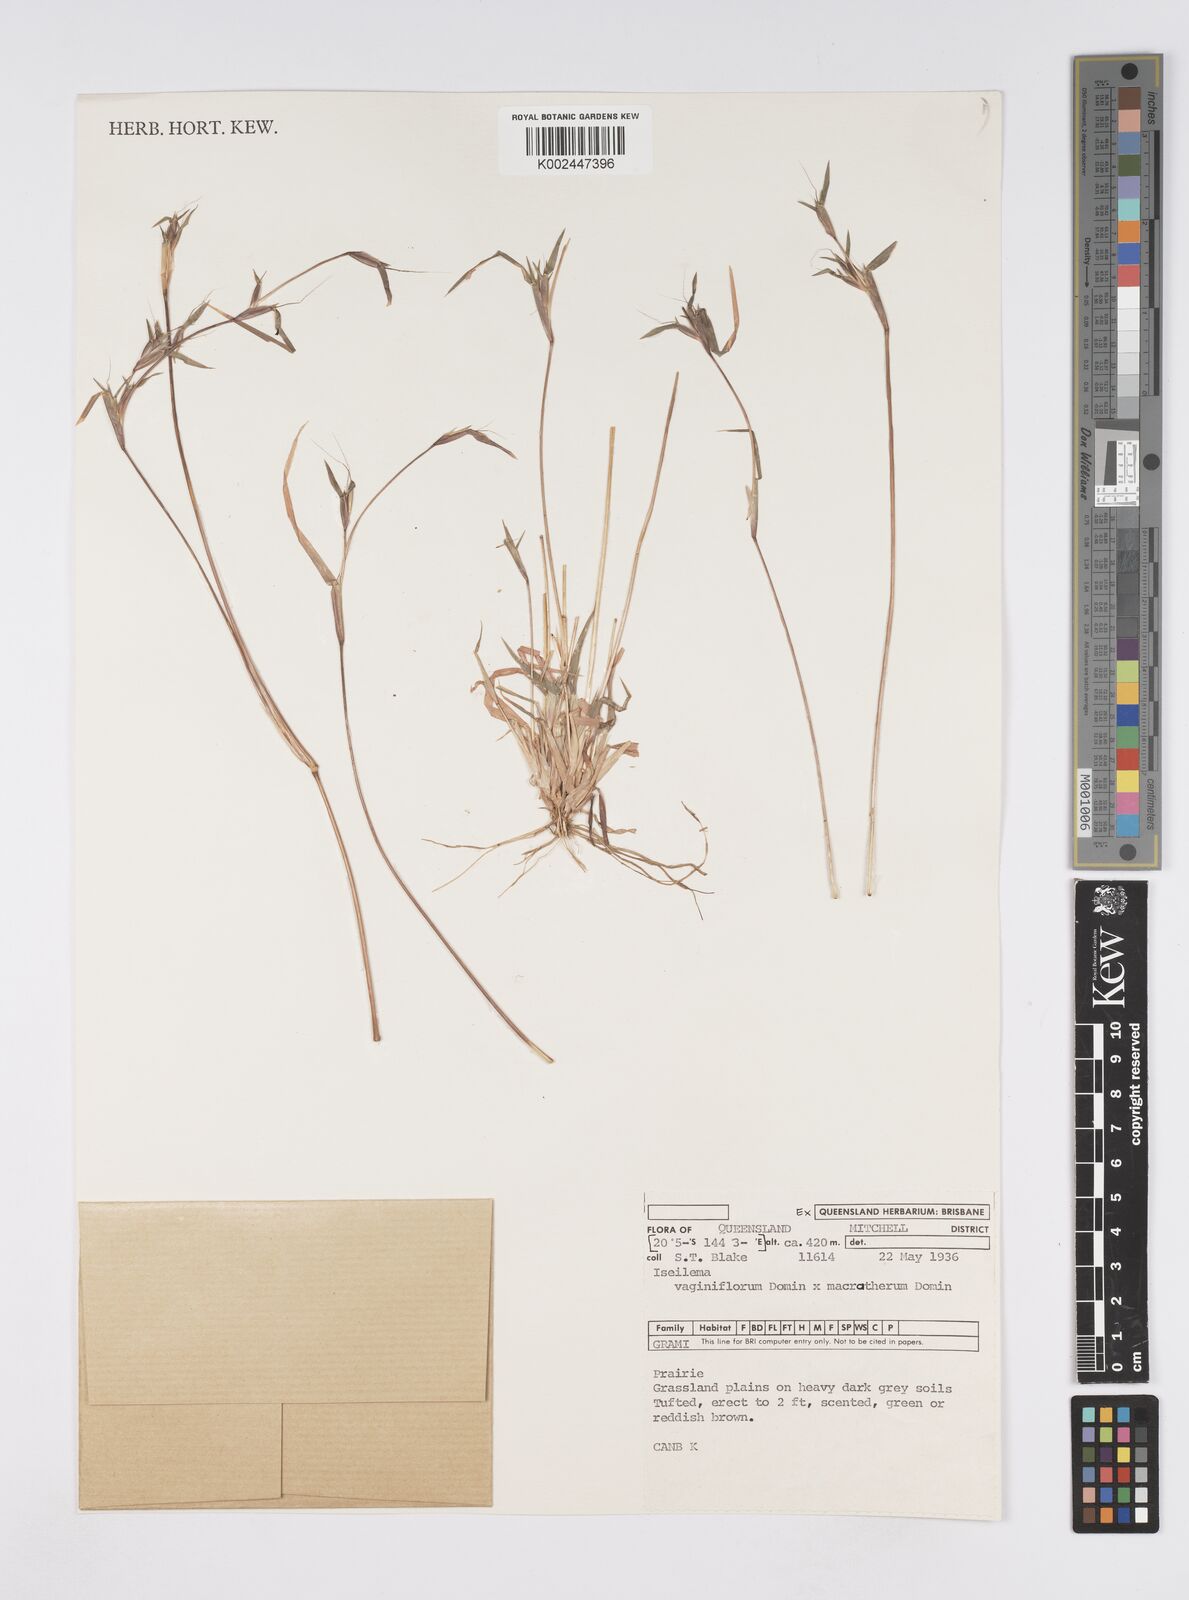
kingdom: Plantae
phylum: Tracheophyta
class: Liliopsida
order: Poales
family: Poaceae
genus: Iseilema
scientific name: Iseilema vaginiflorum
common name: Red flinders grass
